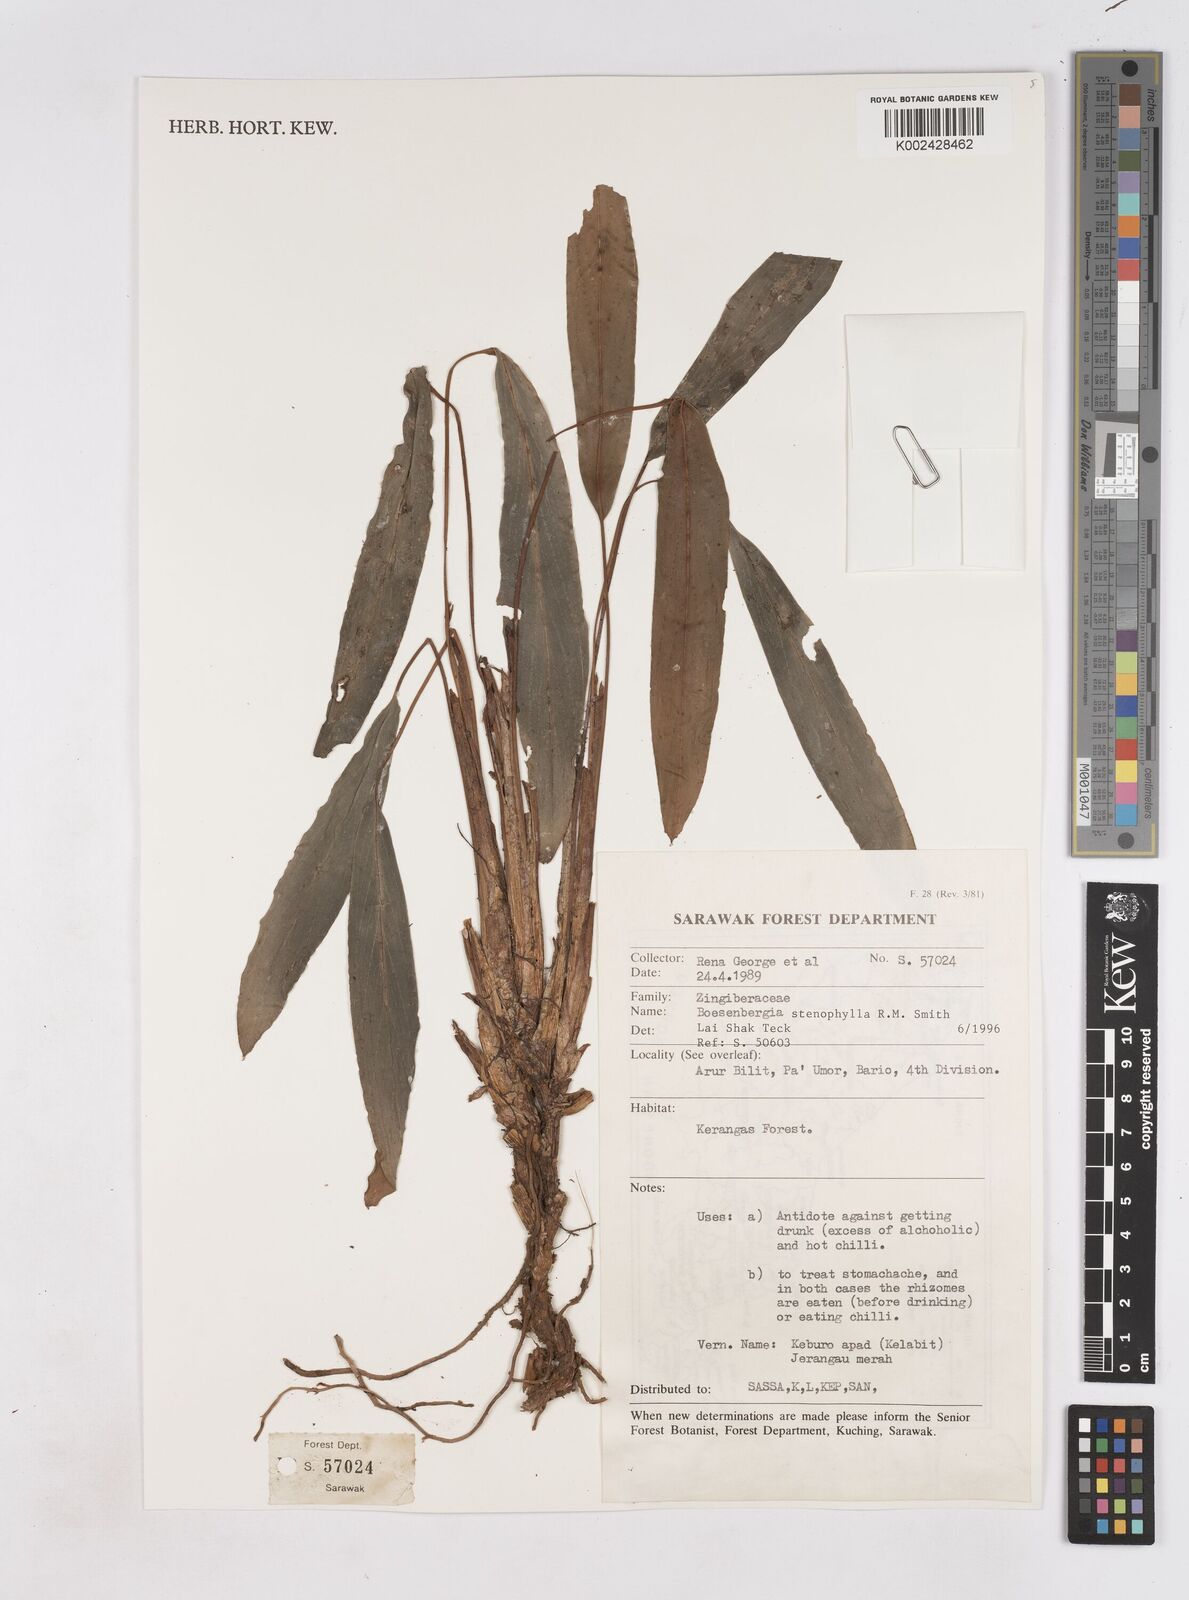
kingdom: Plantae
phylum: Tracheophyta
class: Liliopsida
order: Zingiberales
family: Zingiberaceae
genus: Boesenbergia
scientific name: Boesenbergia stenophylla
